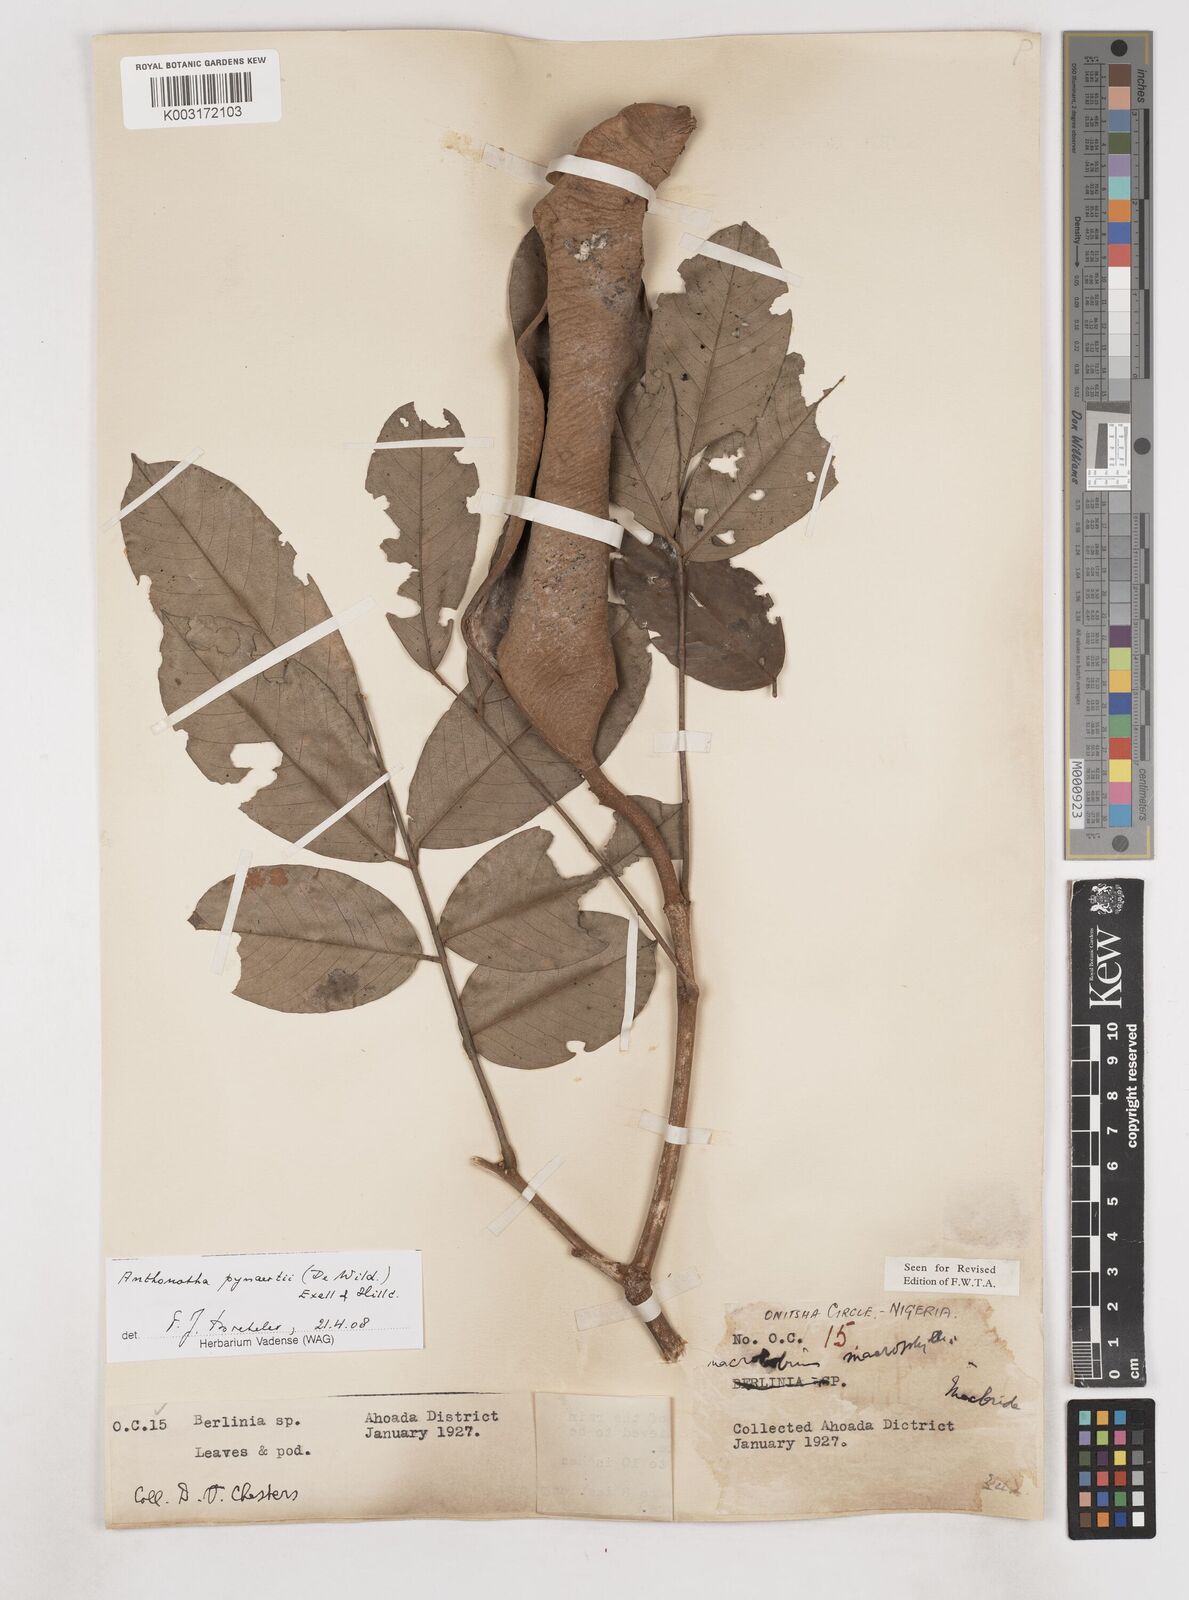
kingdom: Plantae
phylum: Tracheophyta
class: Magnoliopsida
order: Fabales
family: Fabaceae
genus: Anthonotha
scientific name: Anthonotha pynaertii
